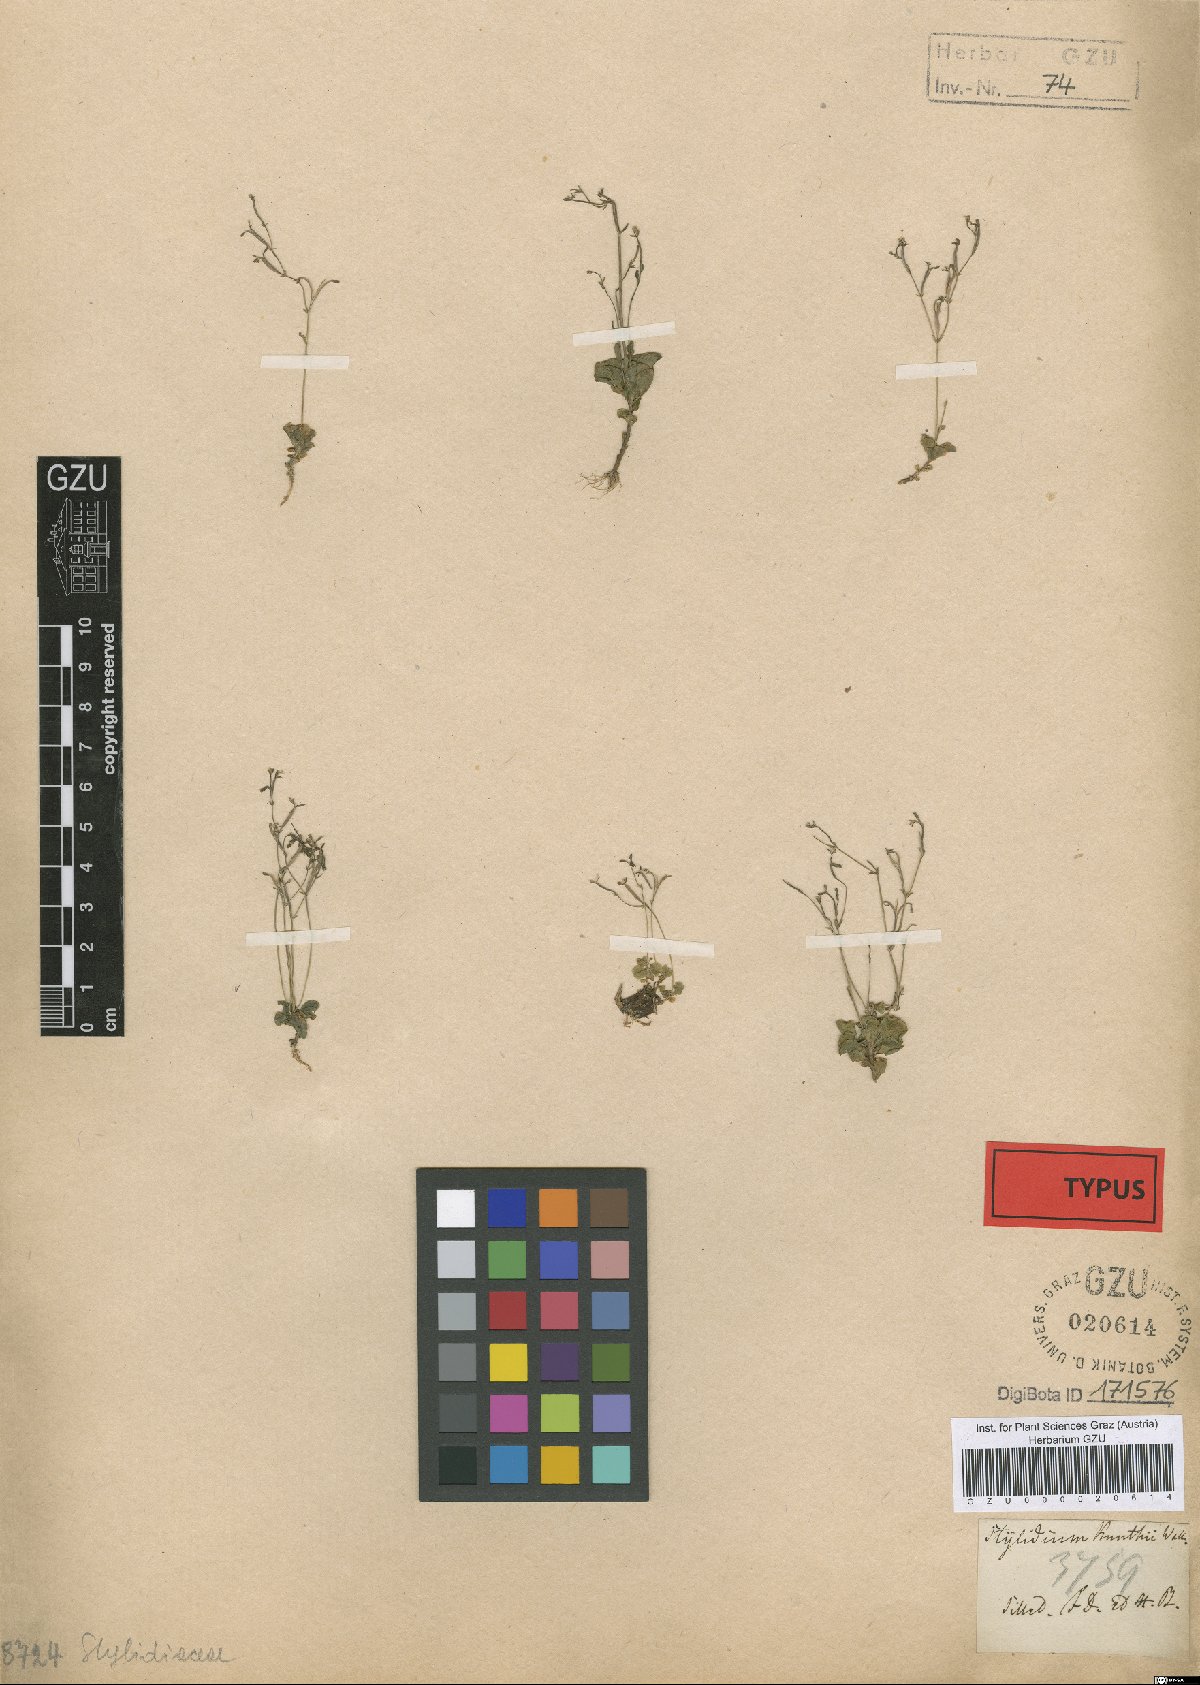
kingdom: Plantae
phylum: Tracheophyta
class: Magnoliopsida
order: Asterales
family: Stylidiaceae
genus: Stylidium
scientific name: Stylidium uliginosum
